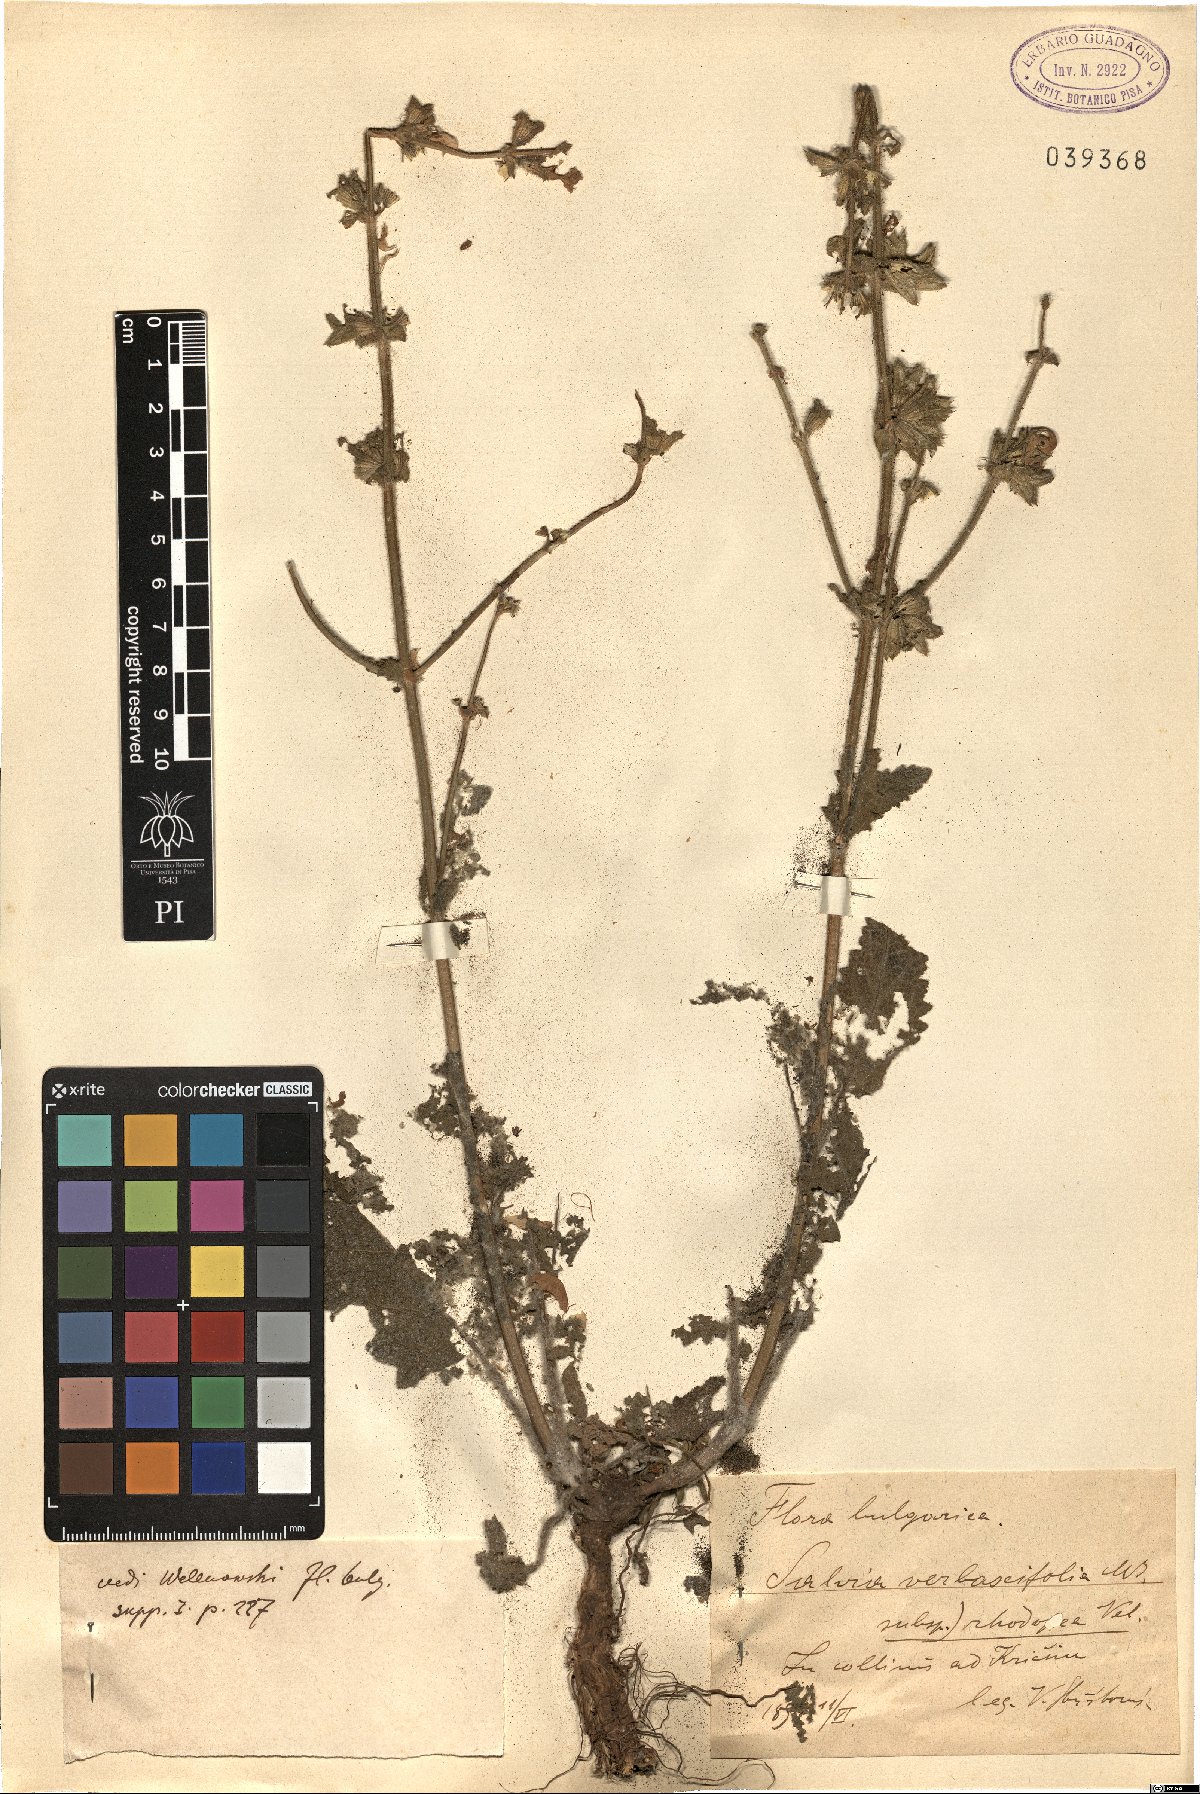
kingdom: Plantae
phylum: Tracheophyta
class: Magnoliopsida
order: Lamiales
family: Lamiaceae
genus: Salvia
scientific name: Salvia verbascifolia
